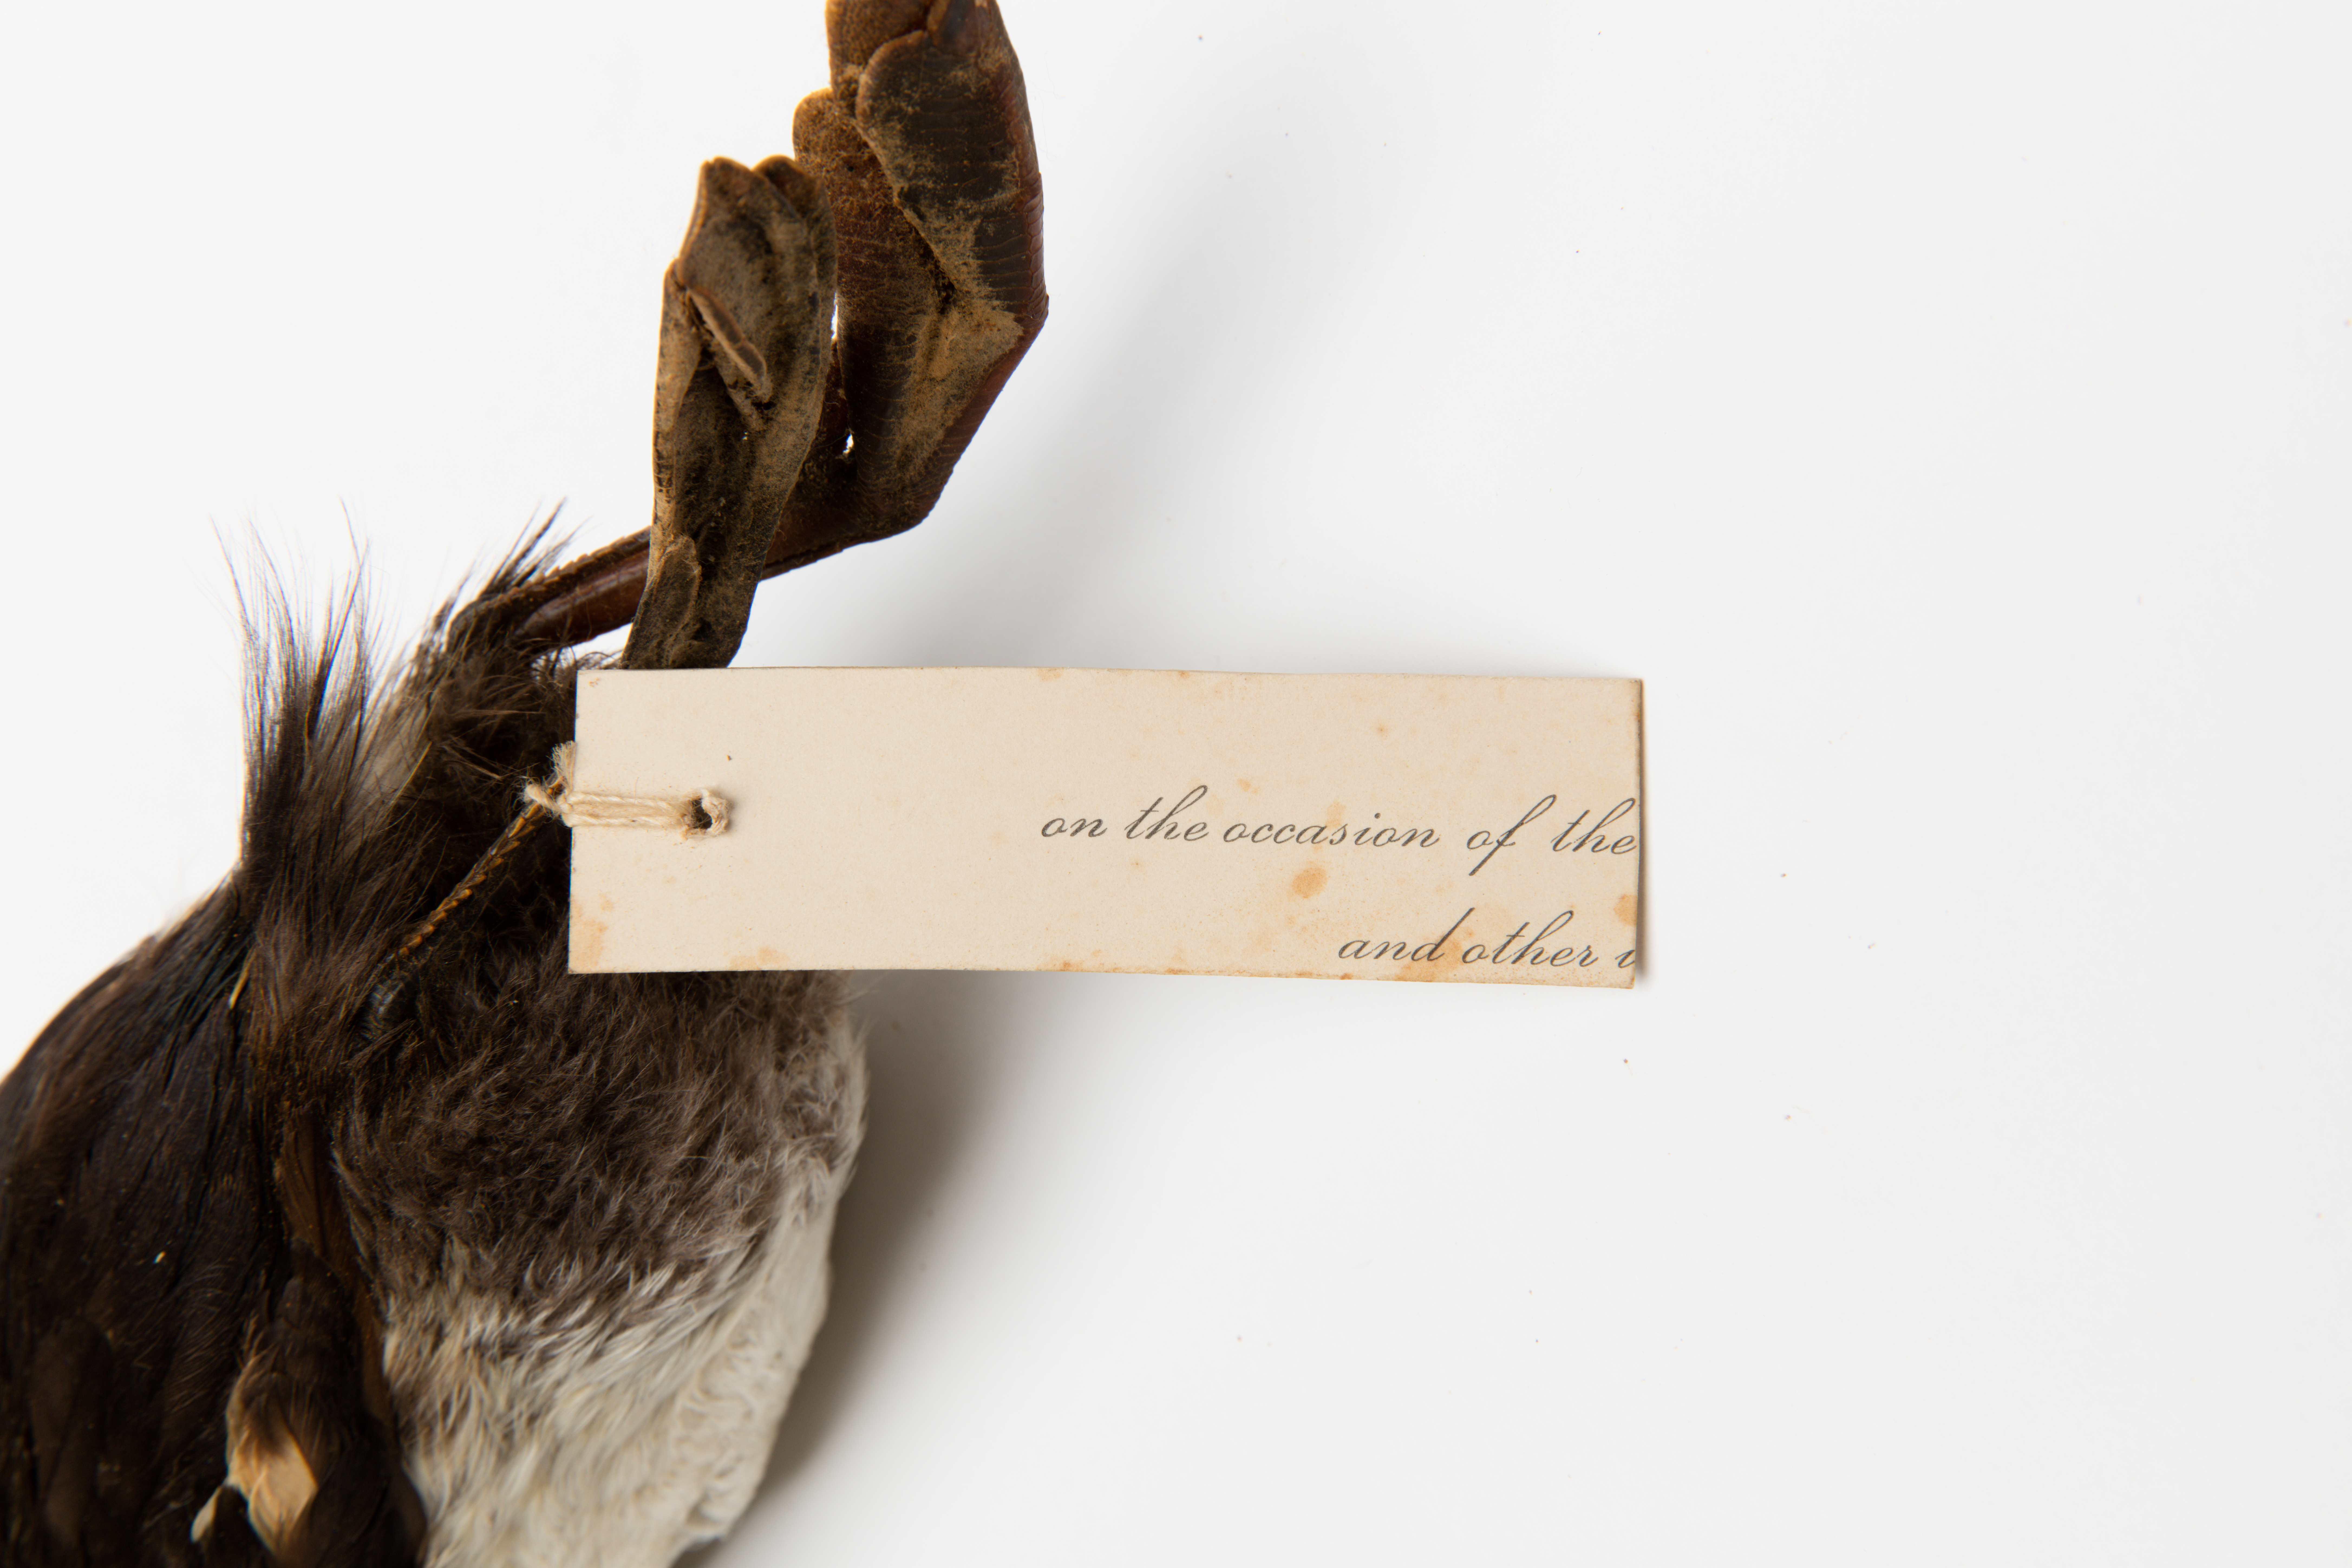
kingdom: Animalia
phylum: Chordata
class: Aves
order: Podicipediformes
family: Podicipedidae
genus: Poliocephalus
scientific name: Poliocephalus rufopectus
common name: New zealand grebe
